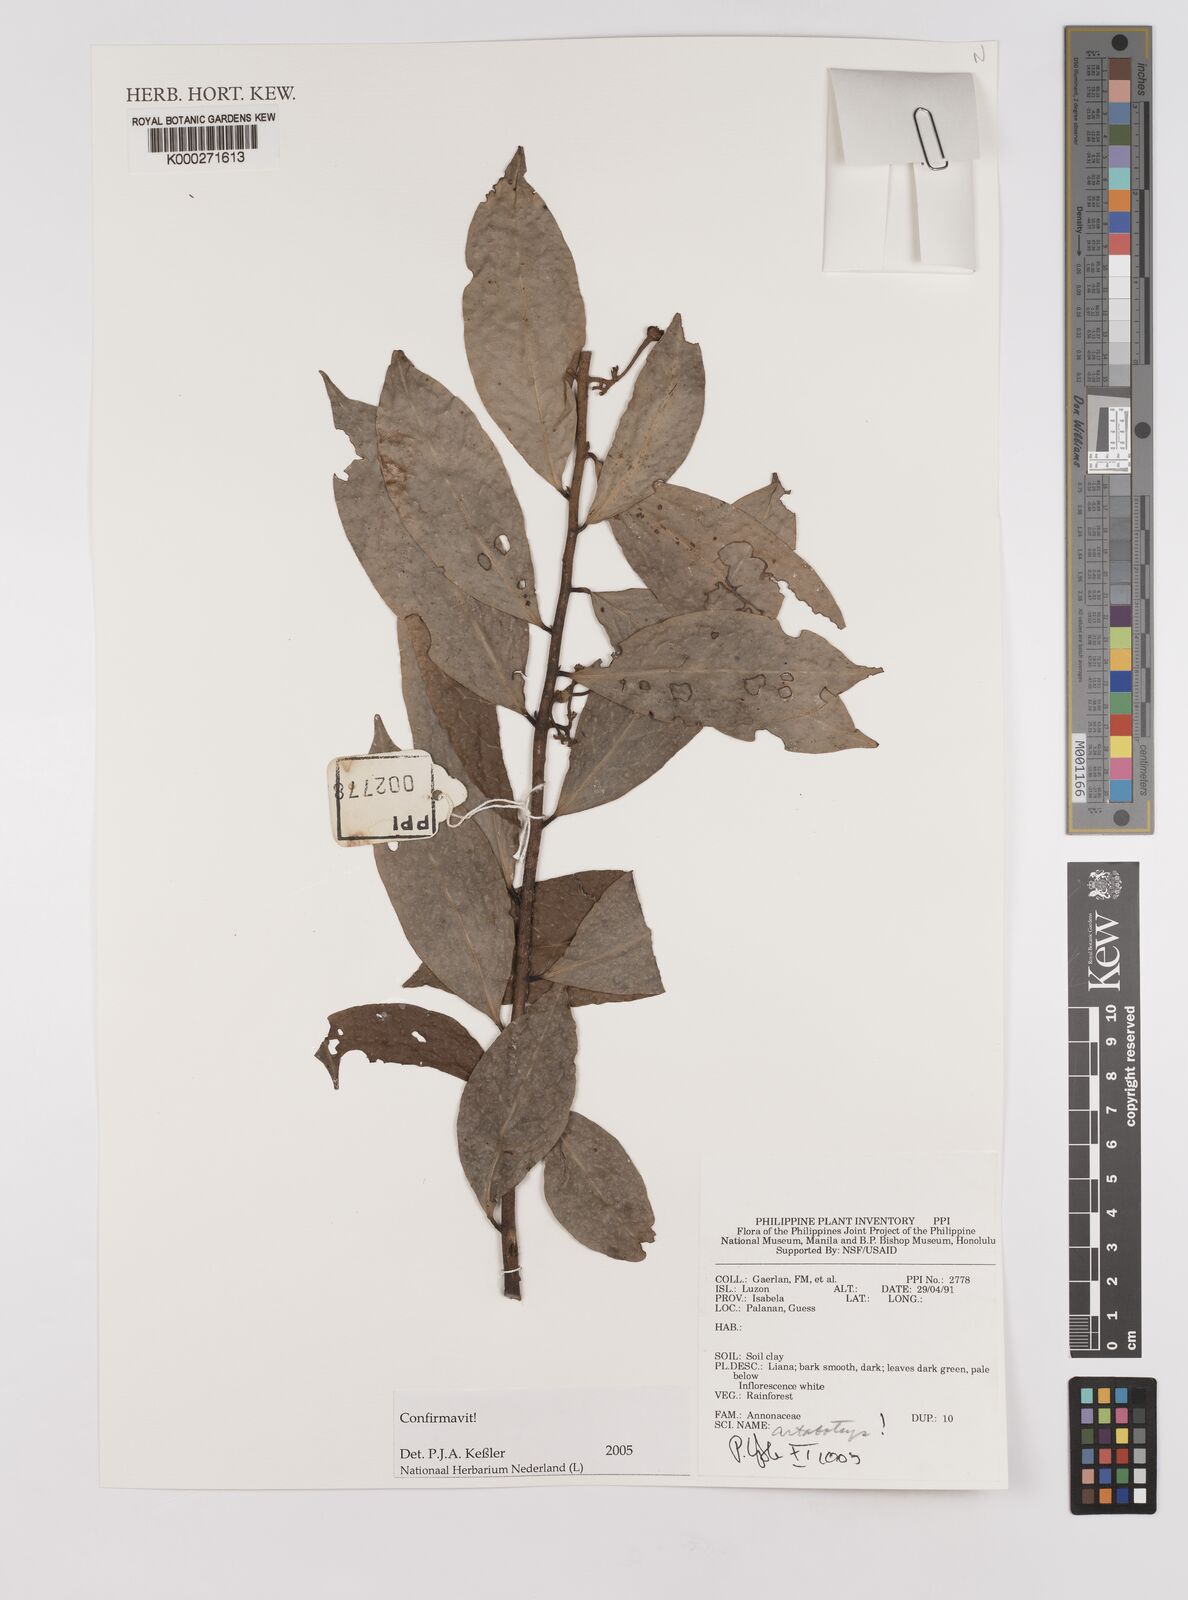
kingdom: Plantae
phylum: Tracheophyta
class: Magnoliopsida
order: Magnoliales
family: Annonaceae
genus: Artabotrys
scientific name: Artabotrys
